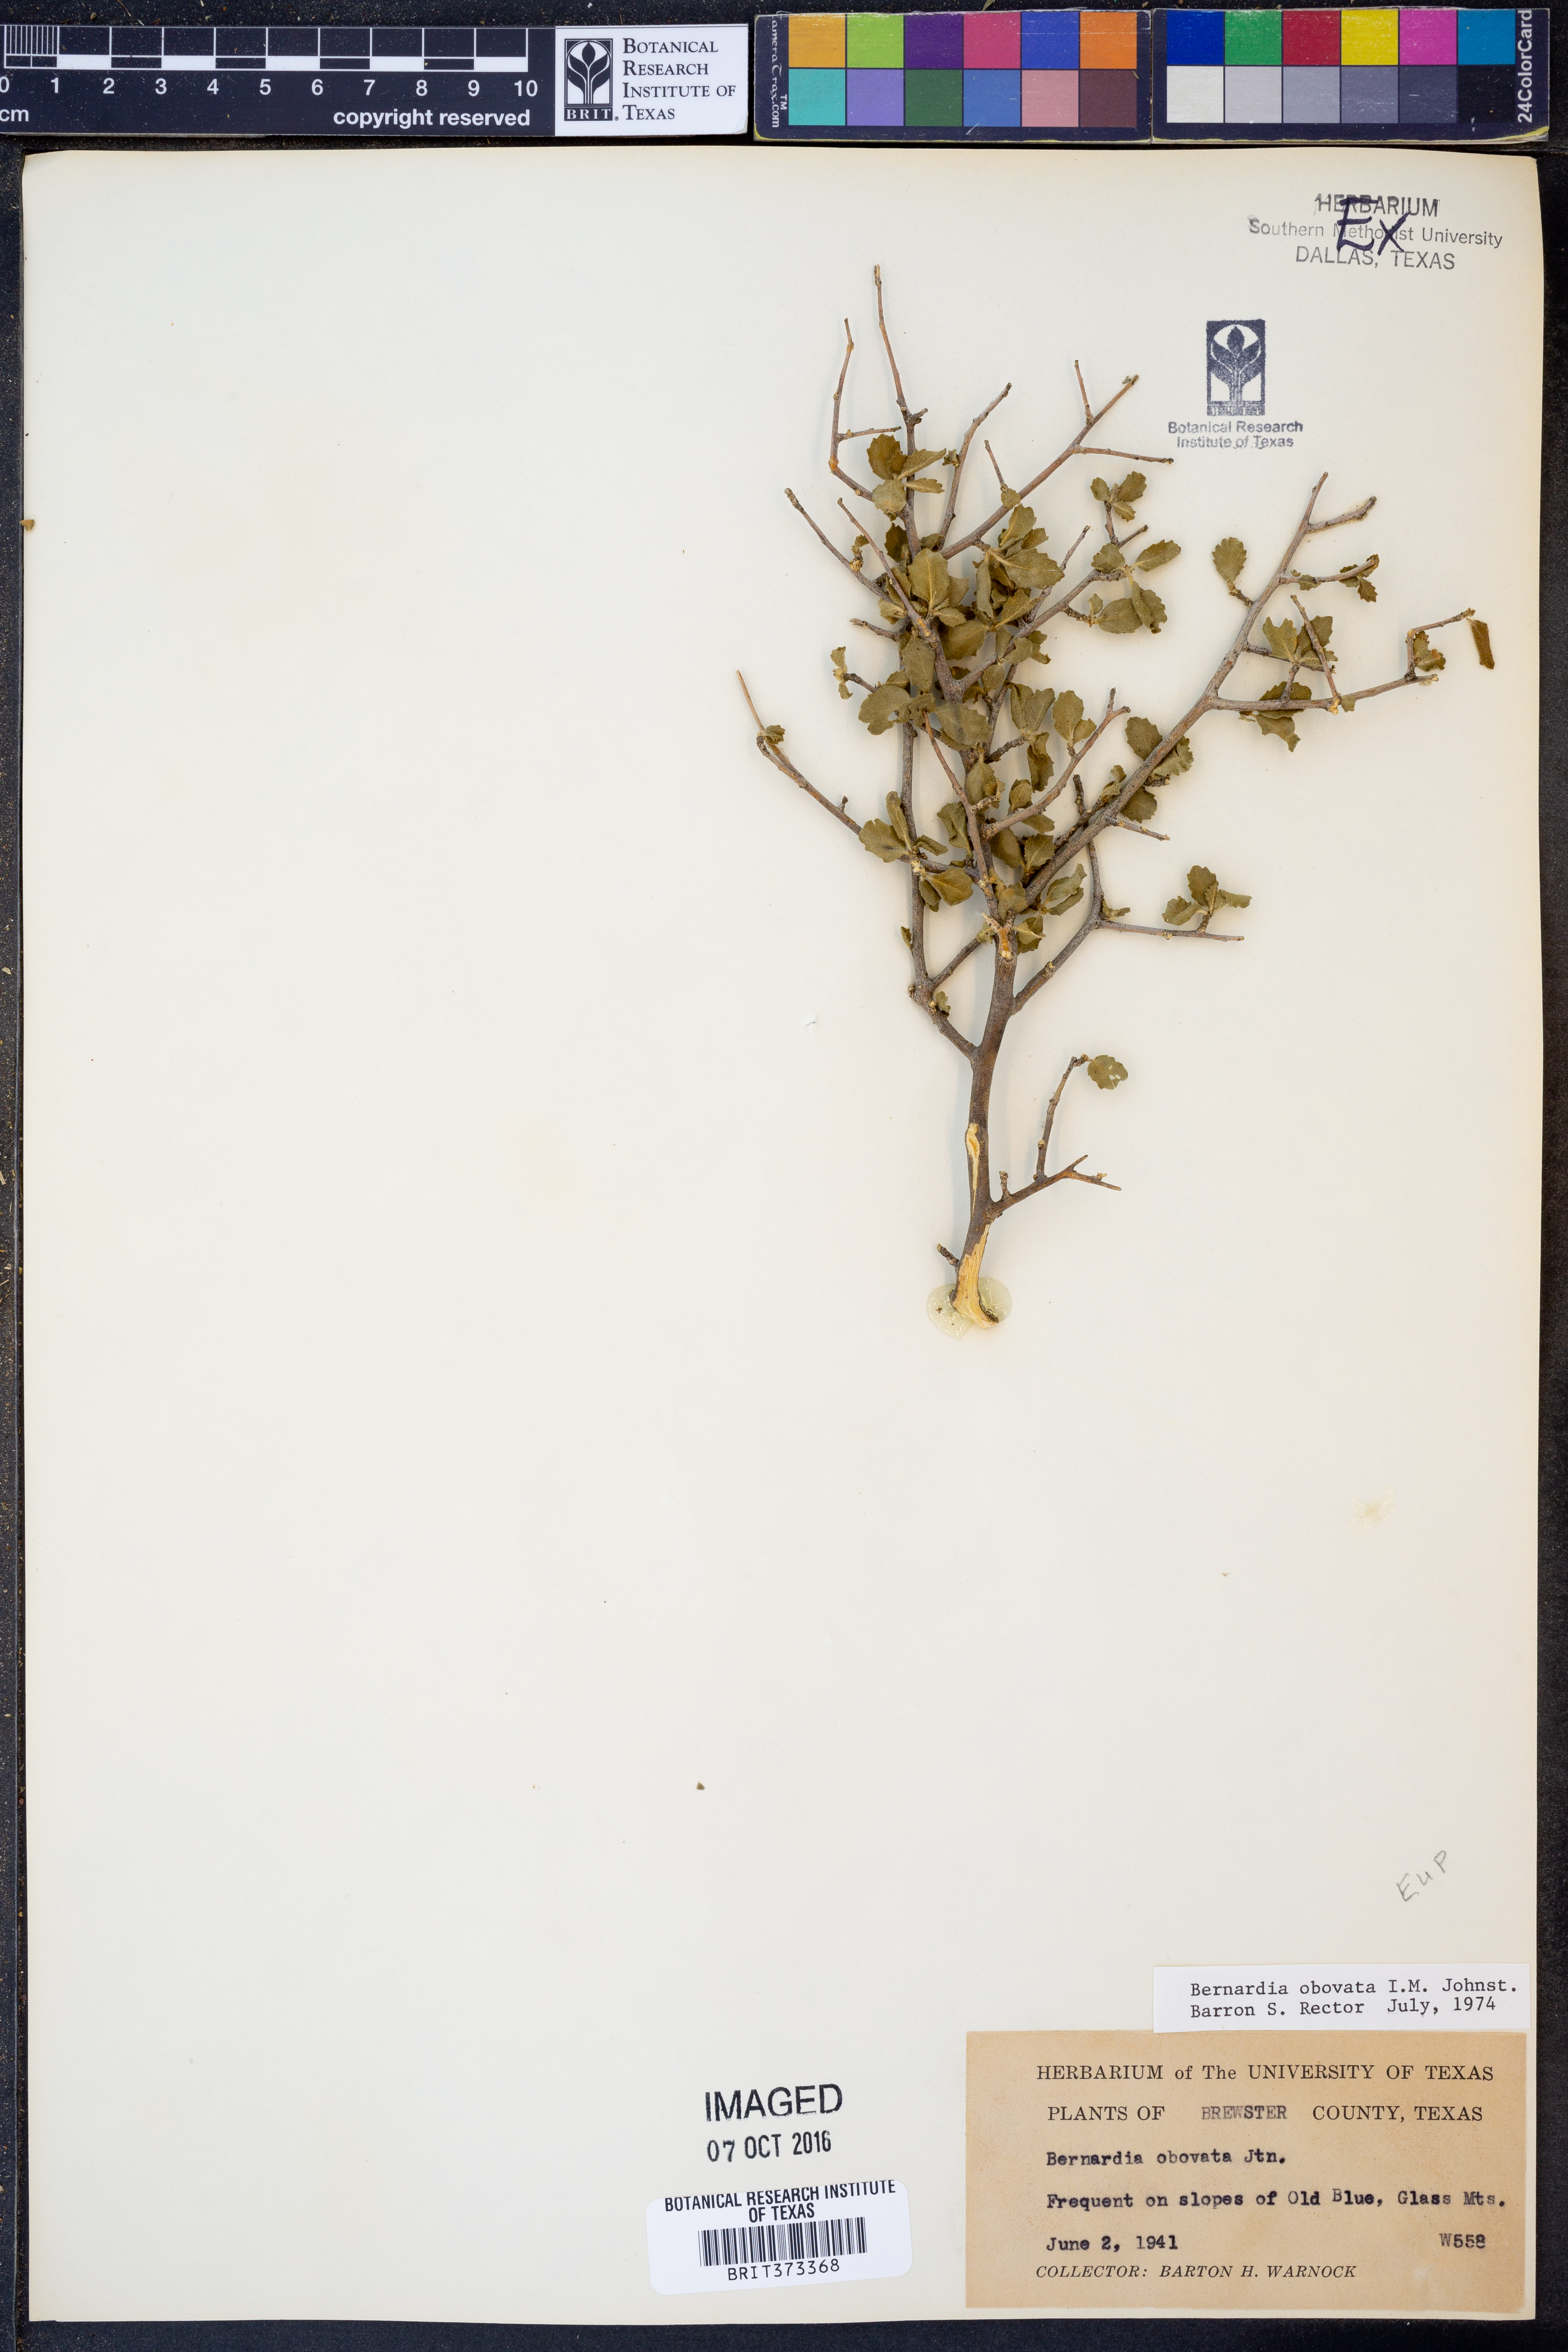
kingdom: Plantae
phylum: Tracheophyta
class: Magnoliopsida
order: Malpighiales
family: Euphorbiaceae
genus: Bernardia
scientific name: Bernardia obovata
